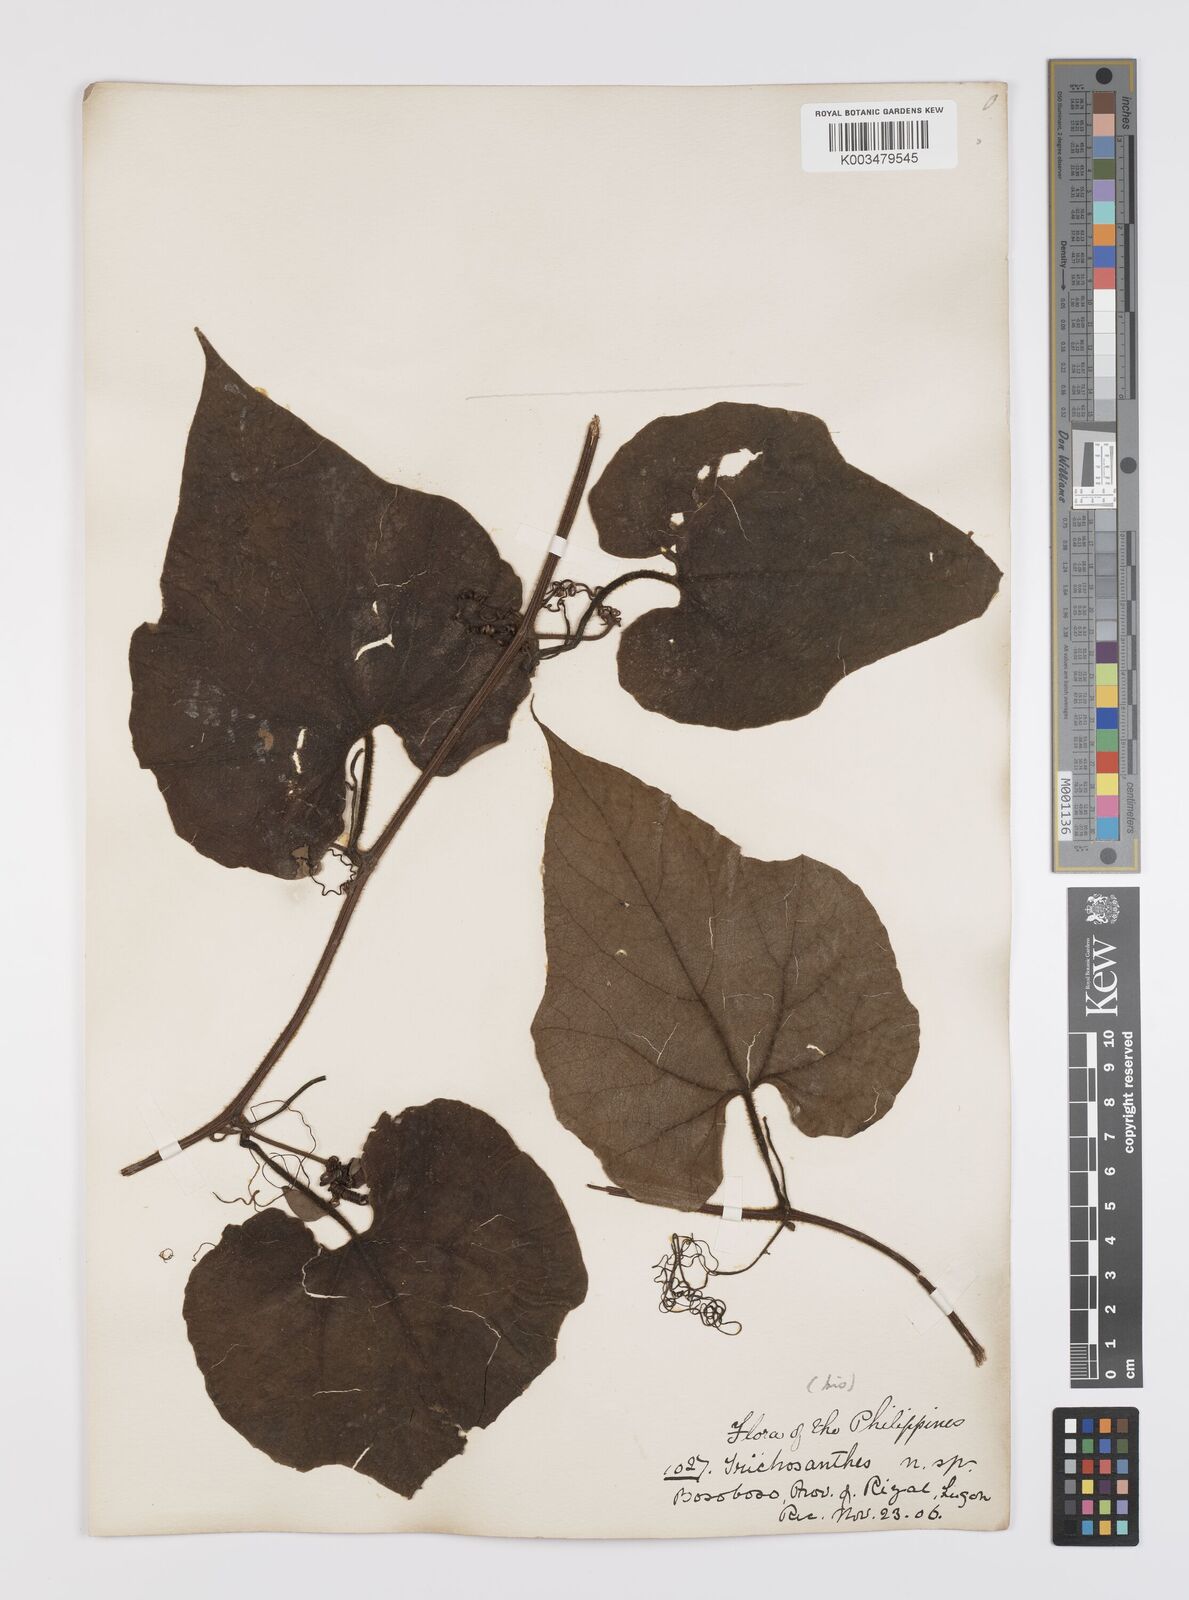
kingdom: Plantae
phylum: Tracheophyta
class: Magnoliopsida
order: Cucurbitales
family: Cucurbitaceae
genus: Trichosanthes
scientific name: Trichosanthes villosa
